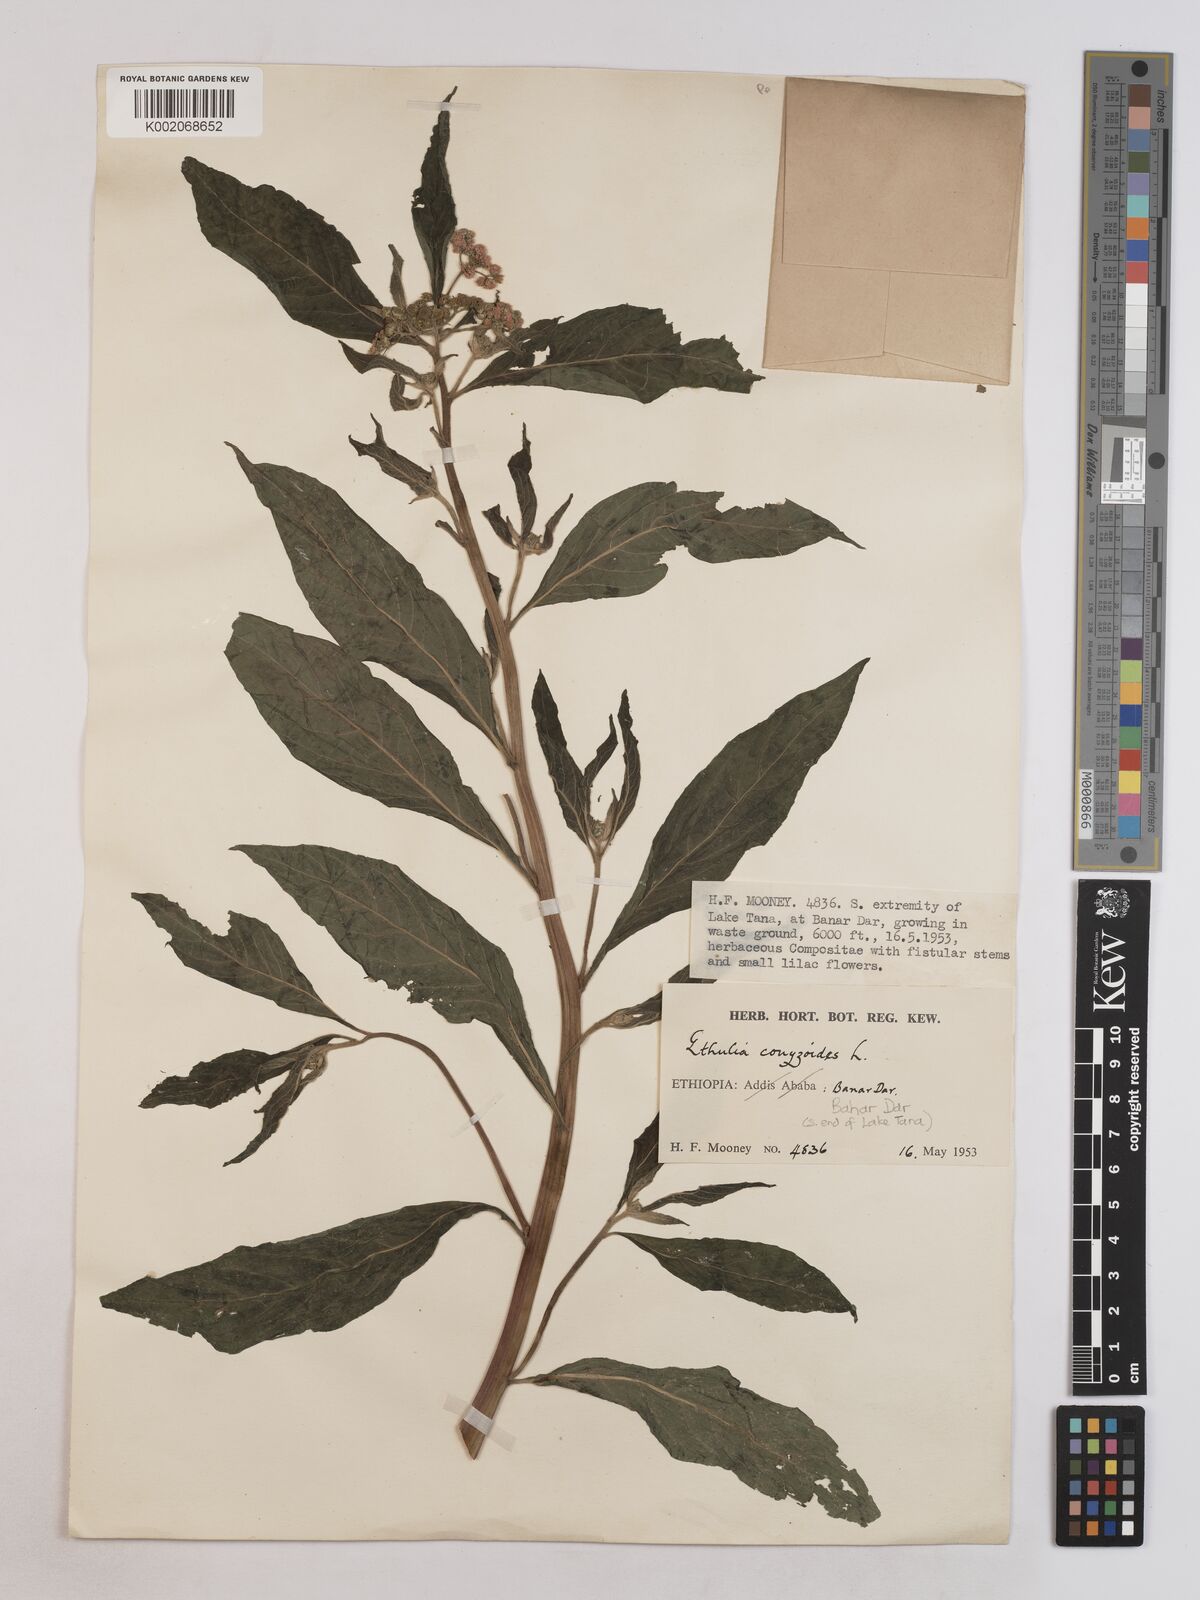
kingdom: Plantae
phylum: Tracheophyta
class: Magnoliopsida
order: Asterales
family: Asteraceae
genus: Ethulia
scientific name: Ethulia conyzoides
